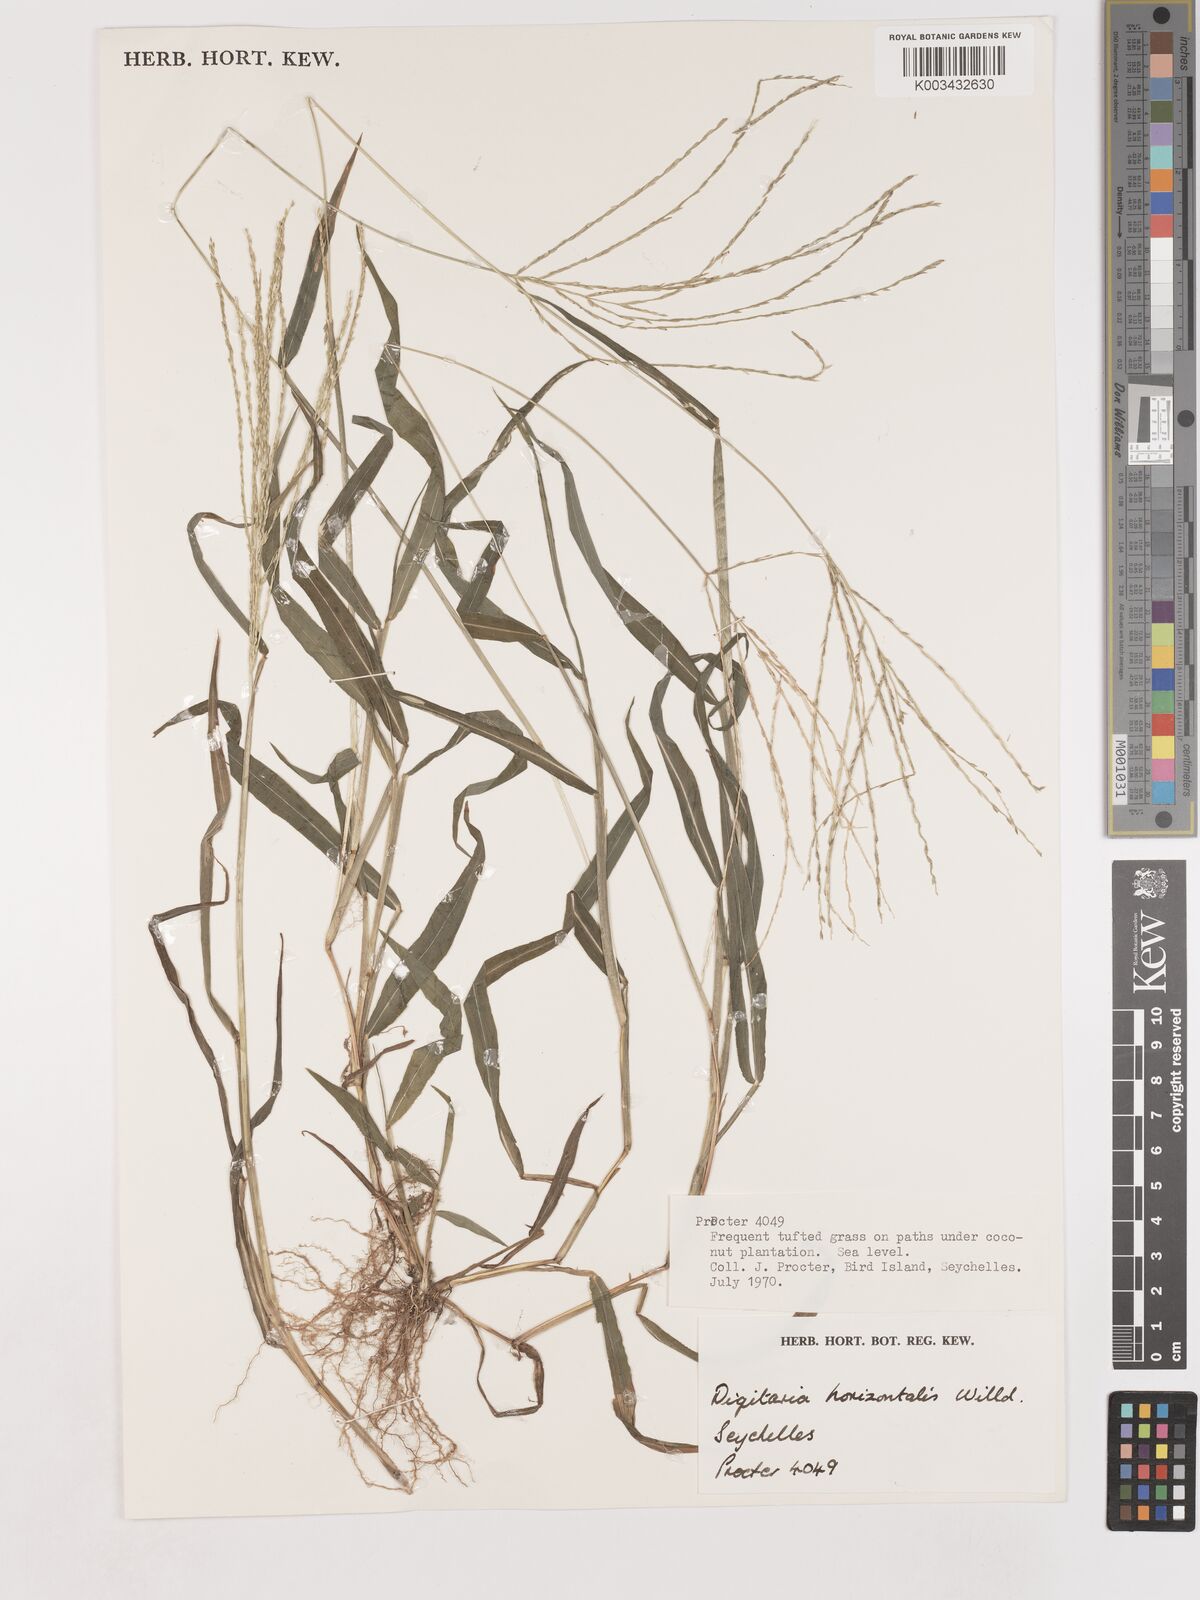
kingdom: Plantae
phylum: Tracheophyta
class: Liliopsida
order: Poales
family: Poaceae
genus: Digitaria
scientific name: Digitaria horizontalis
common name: Jamaican crabgrass
